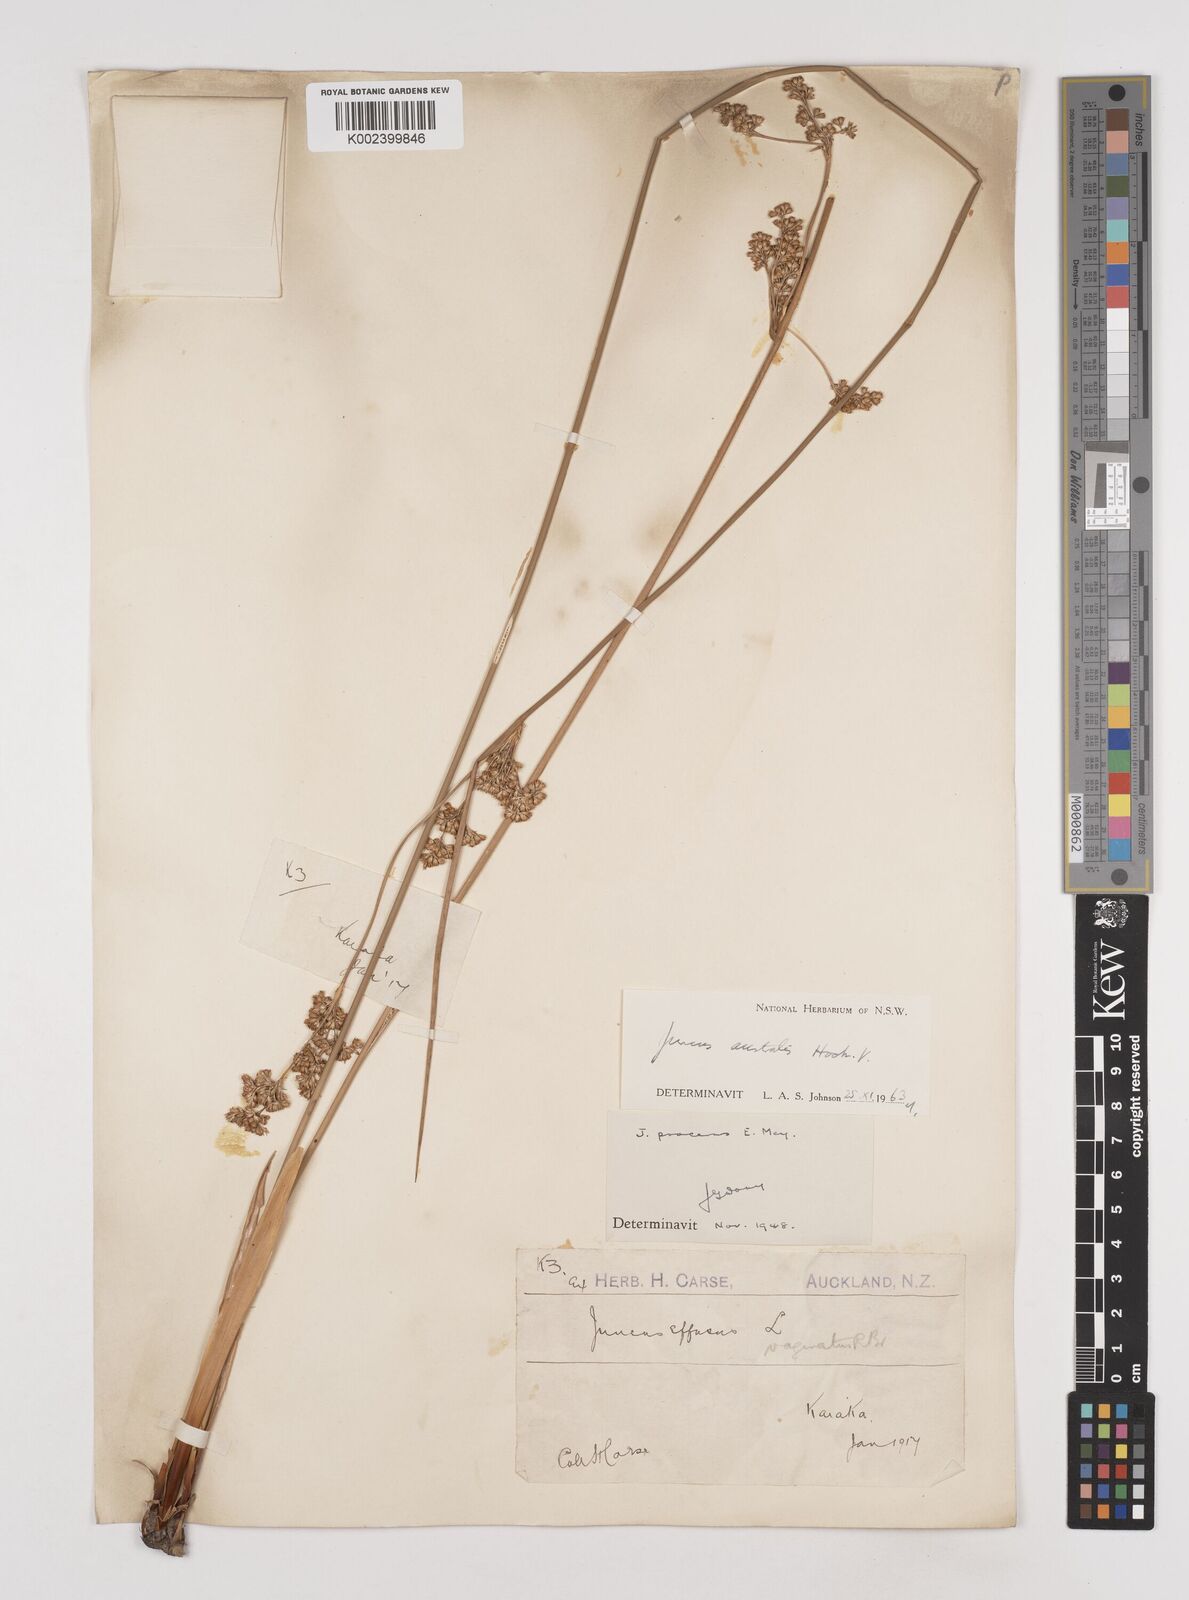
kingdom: Plantae
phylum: Tracheophyta
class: Liliopsida
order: Poales
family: Juncaceae
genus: Juncus
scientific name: Juncus australis
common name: Austral rush
